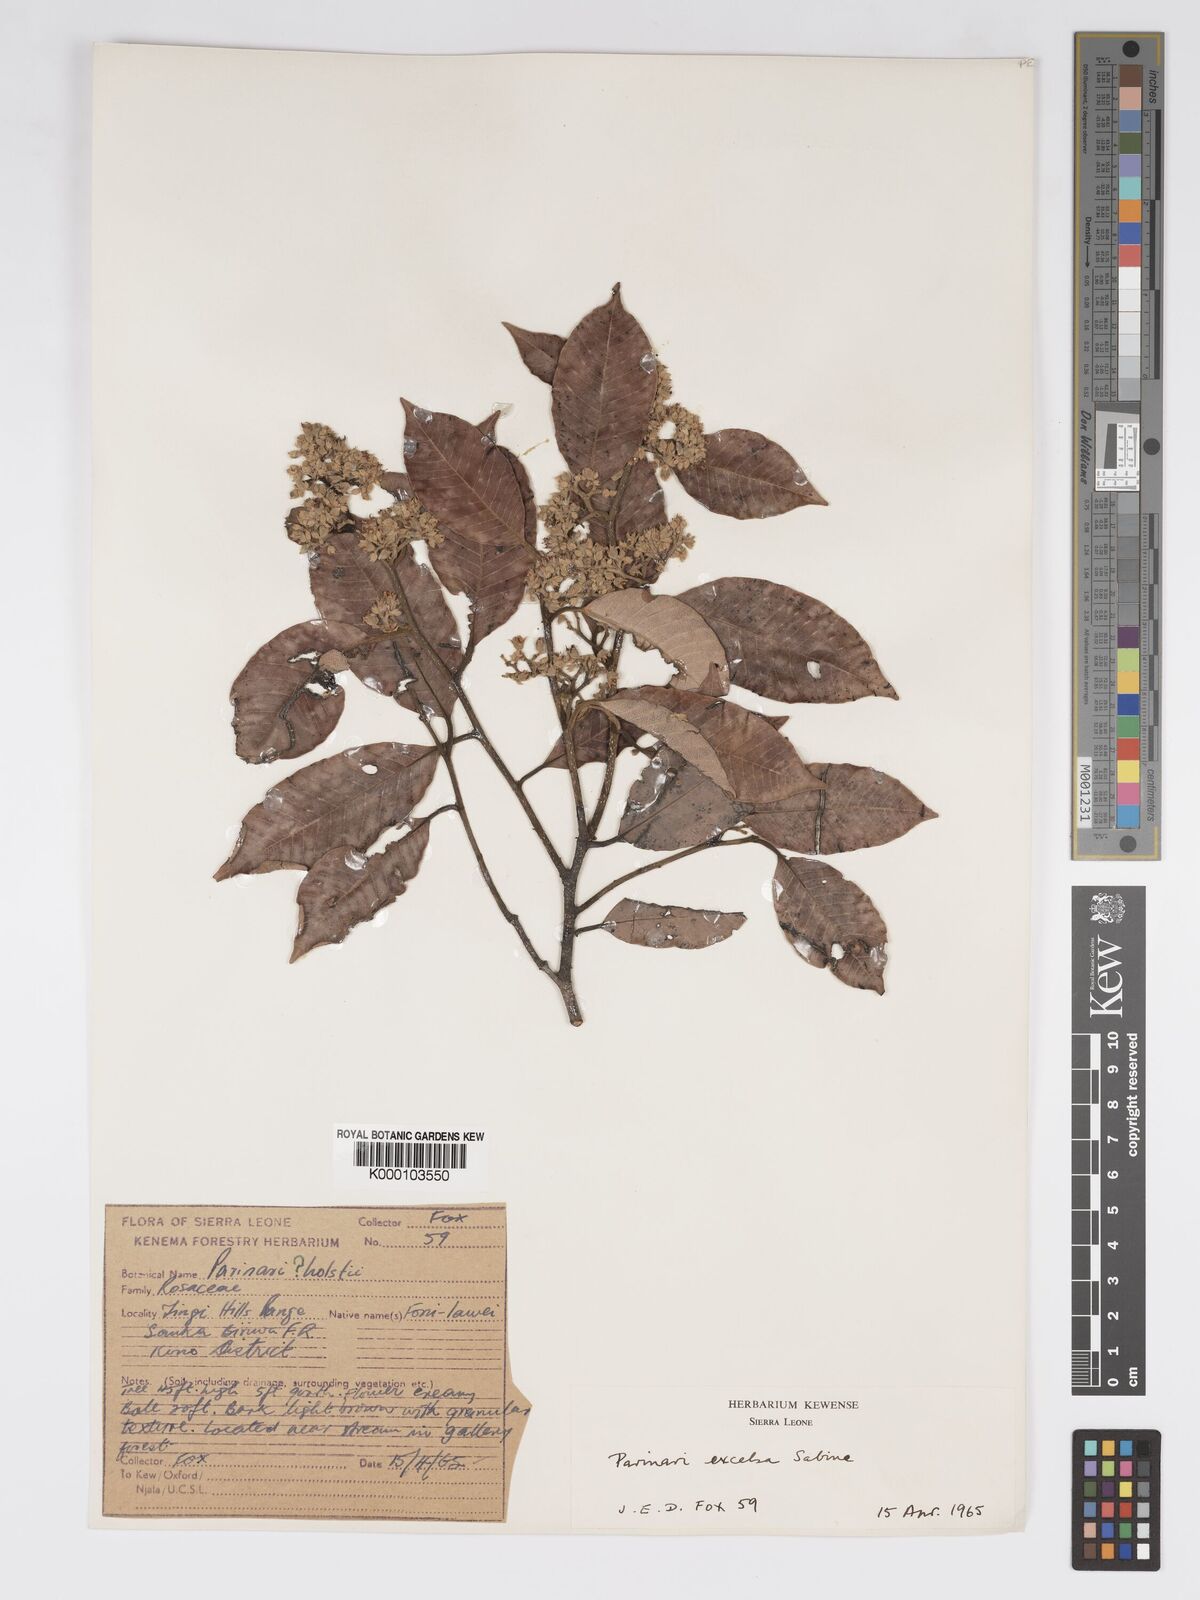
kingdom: Plantae
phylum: Tracheophyta
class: Magnoliopsida
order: Malpighiales
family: Chrysobalanaceae
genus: Parinari
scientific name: Parinari excelsa
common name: Guinea-plum
